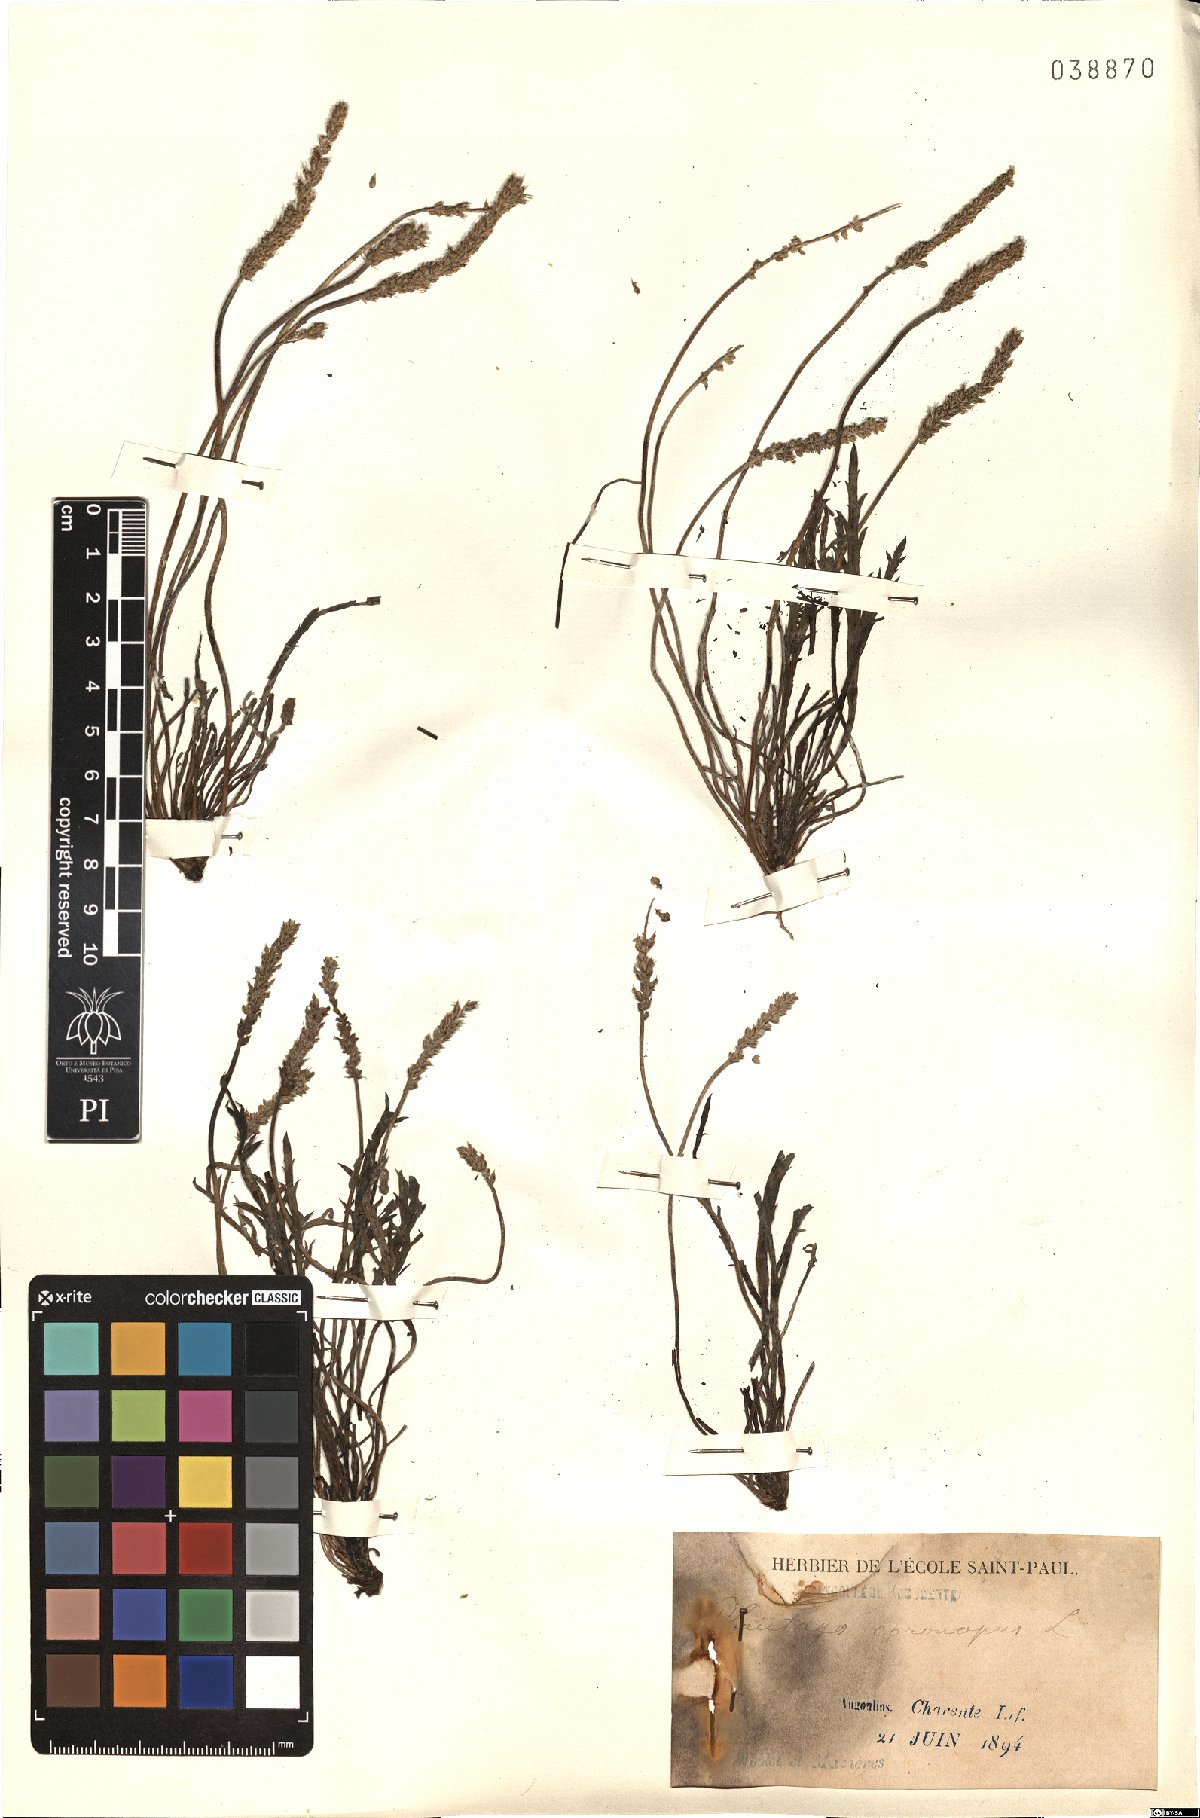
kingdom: Plantae
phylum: Tracheophyta
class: Magnoliopsida
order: Lamiales
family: Plantaginaceae
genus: Plantago
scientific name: Plantago coronopus
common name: Buck's-horn plantain
